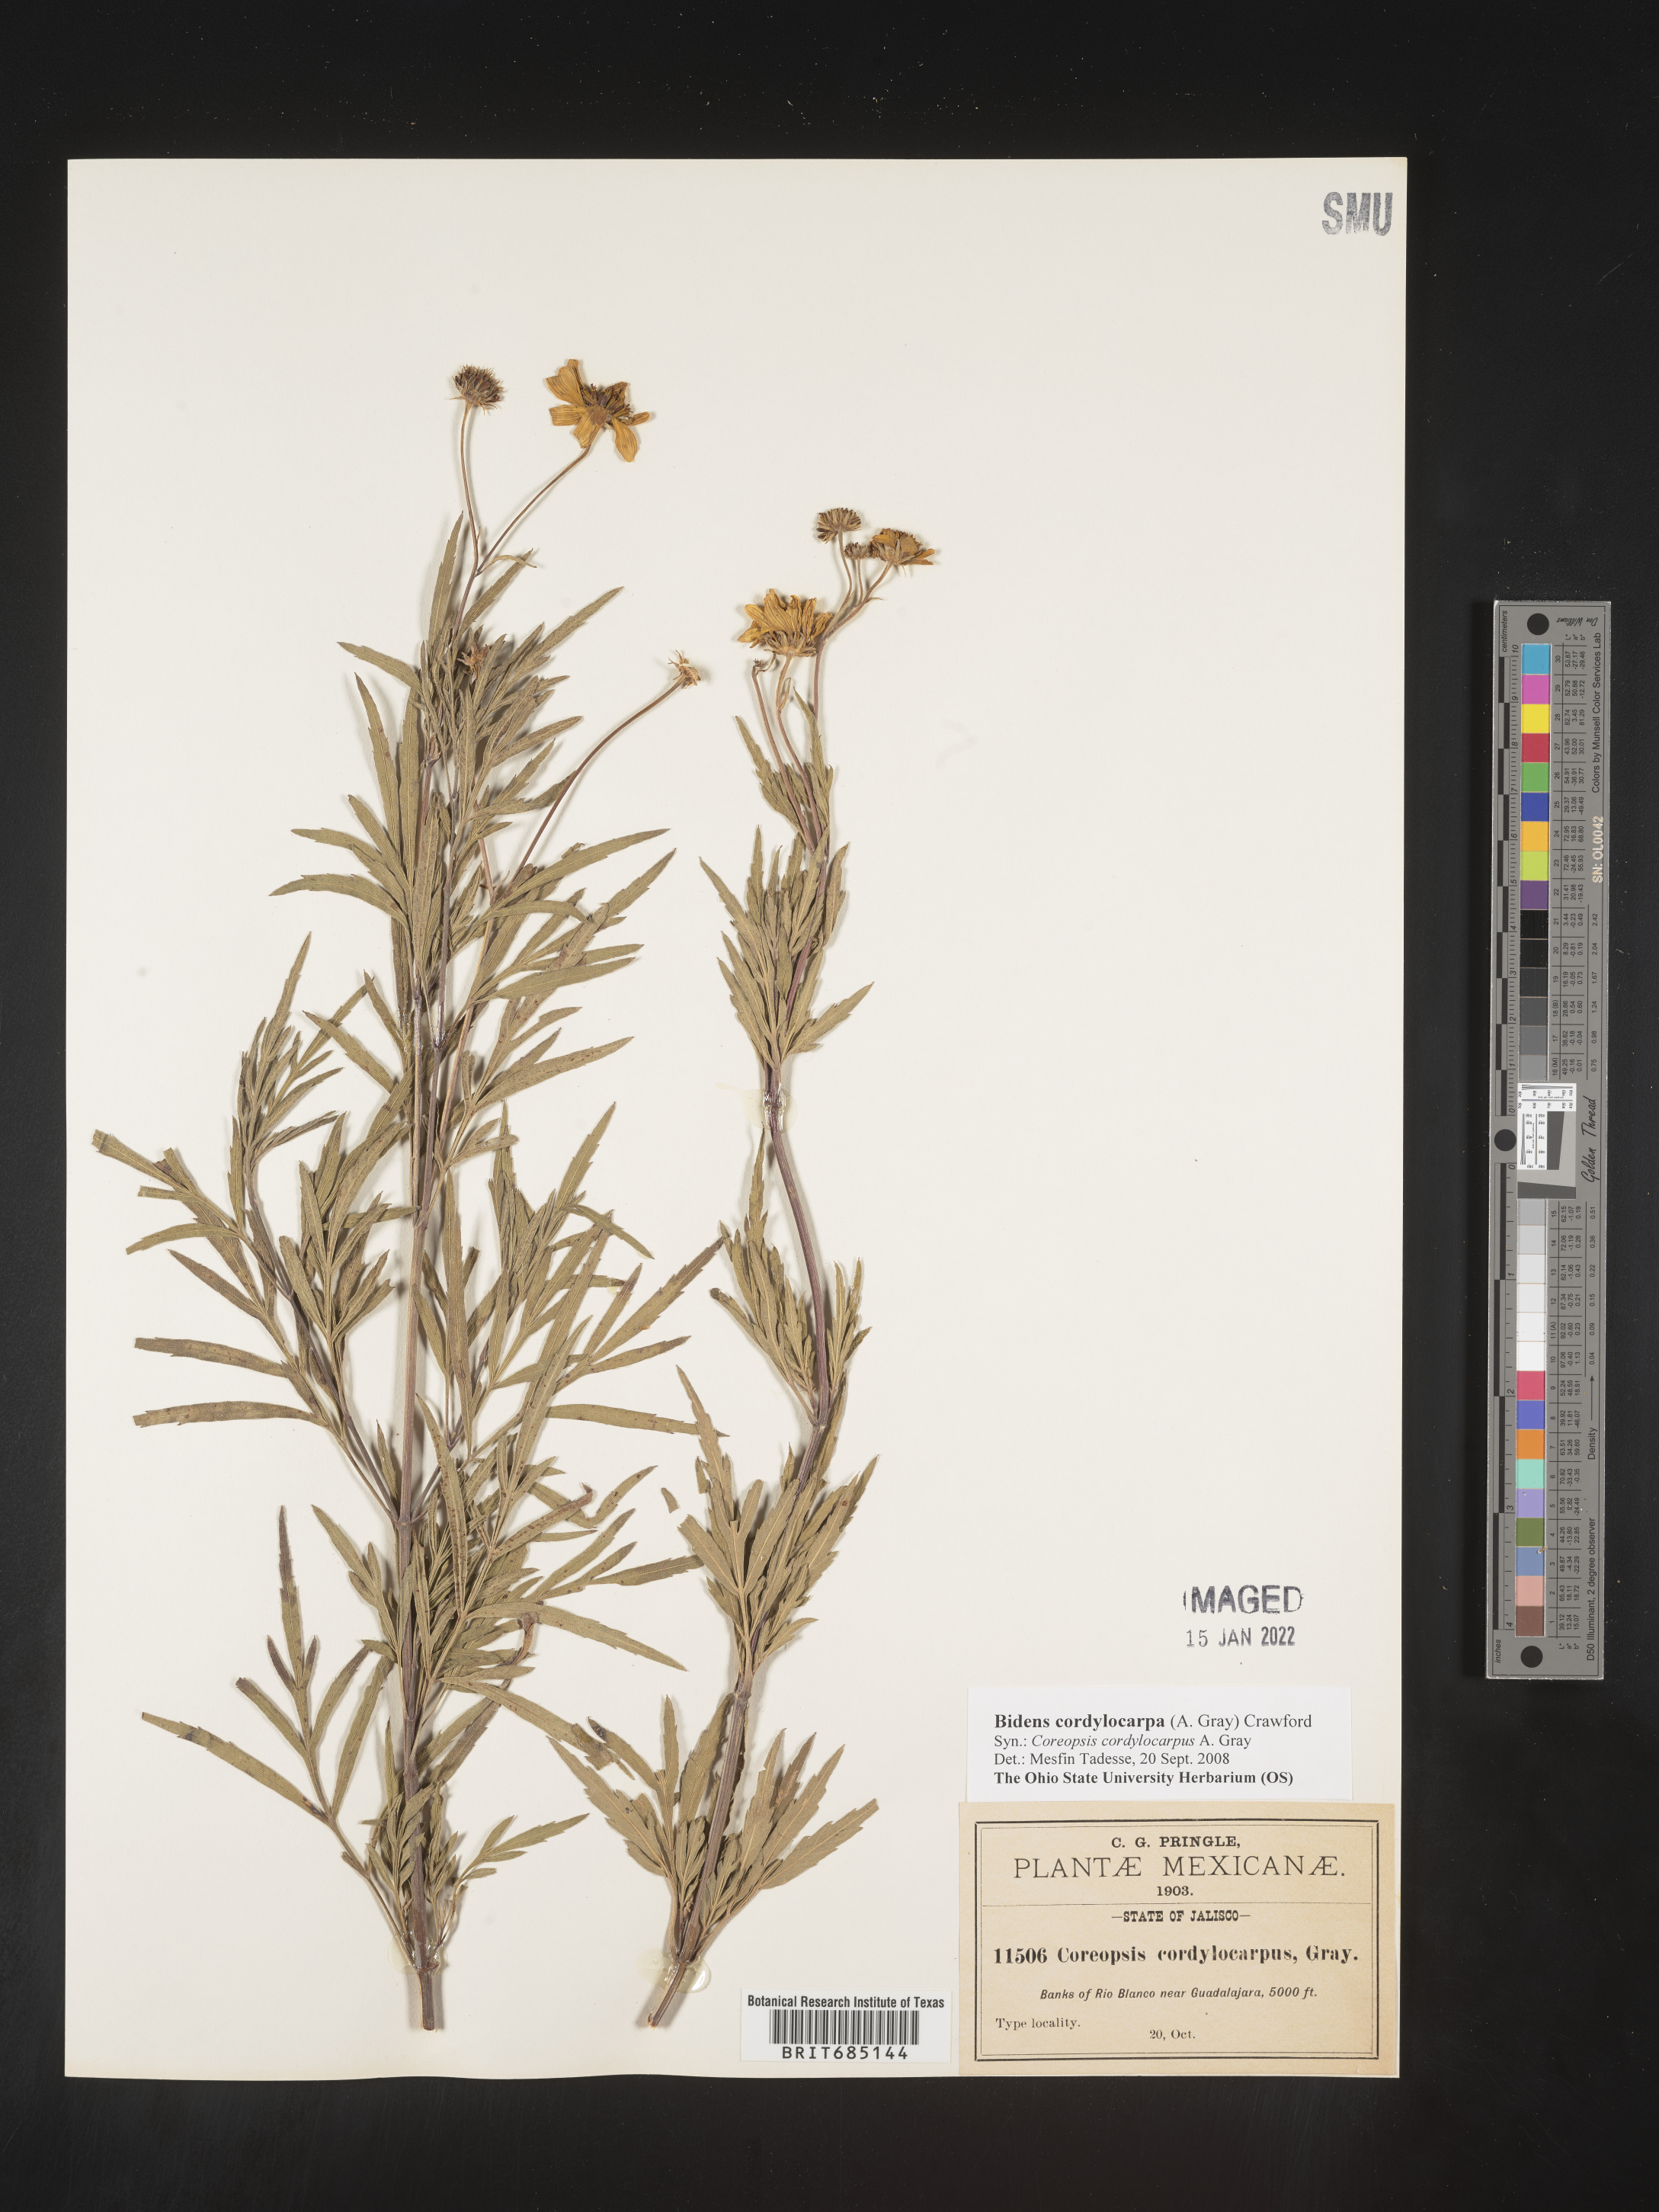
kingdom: Plantae
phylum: Tracheophyta
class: Magnoliopsida
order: Asterales
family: Asteraceae
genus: Bidens
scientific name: Bidens
